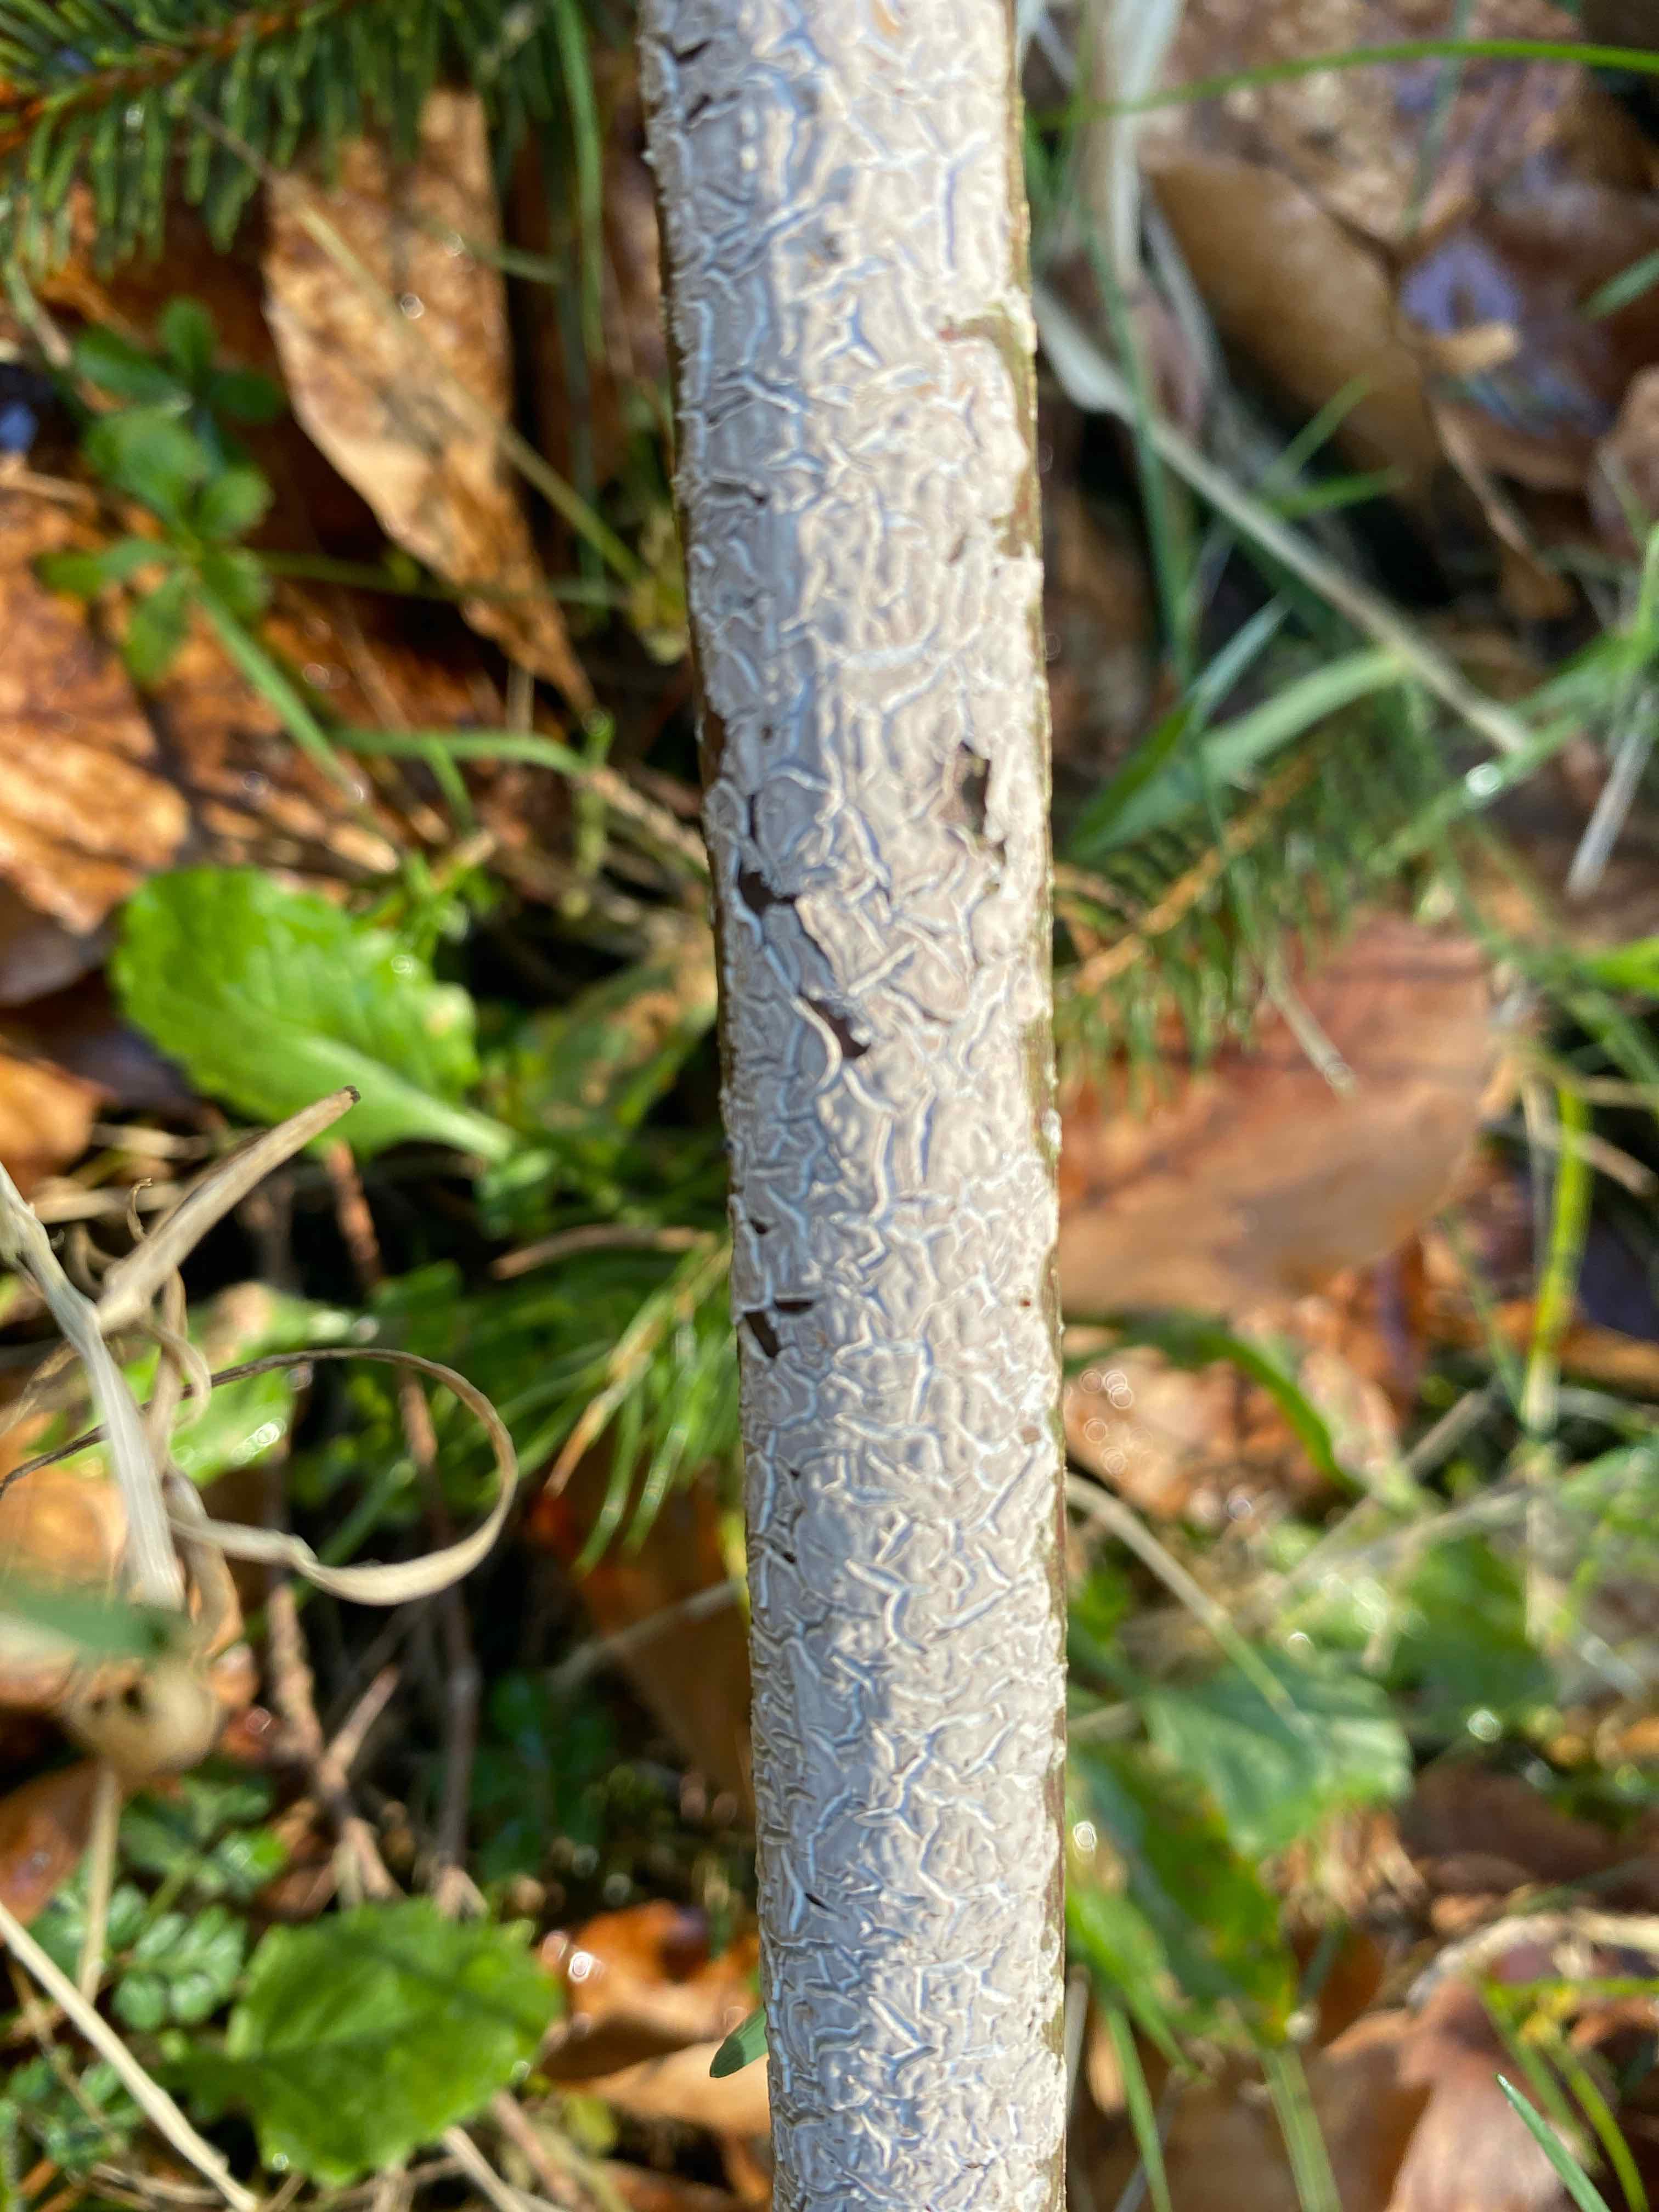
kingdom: Fungi
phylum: Basidiomycota
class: Agaricomycetes
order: Agaricales
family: Physalacriaceae
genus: Cylindrobasidium
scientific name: Cylindrobasidium evolvens
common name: sprækkehinde
